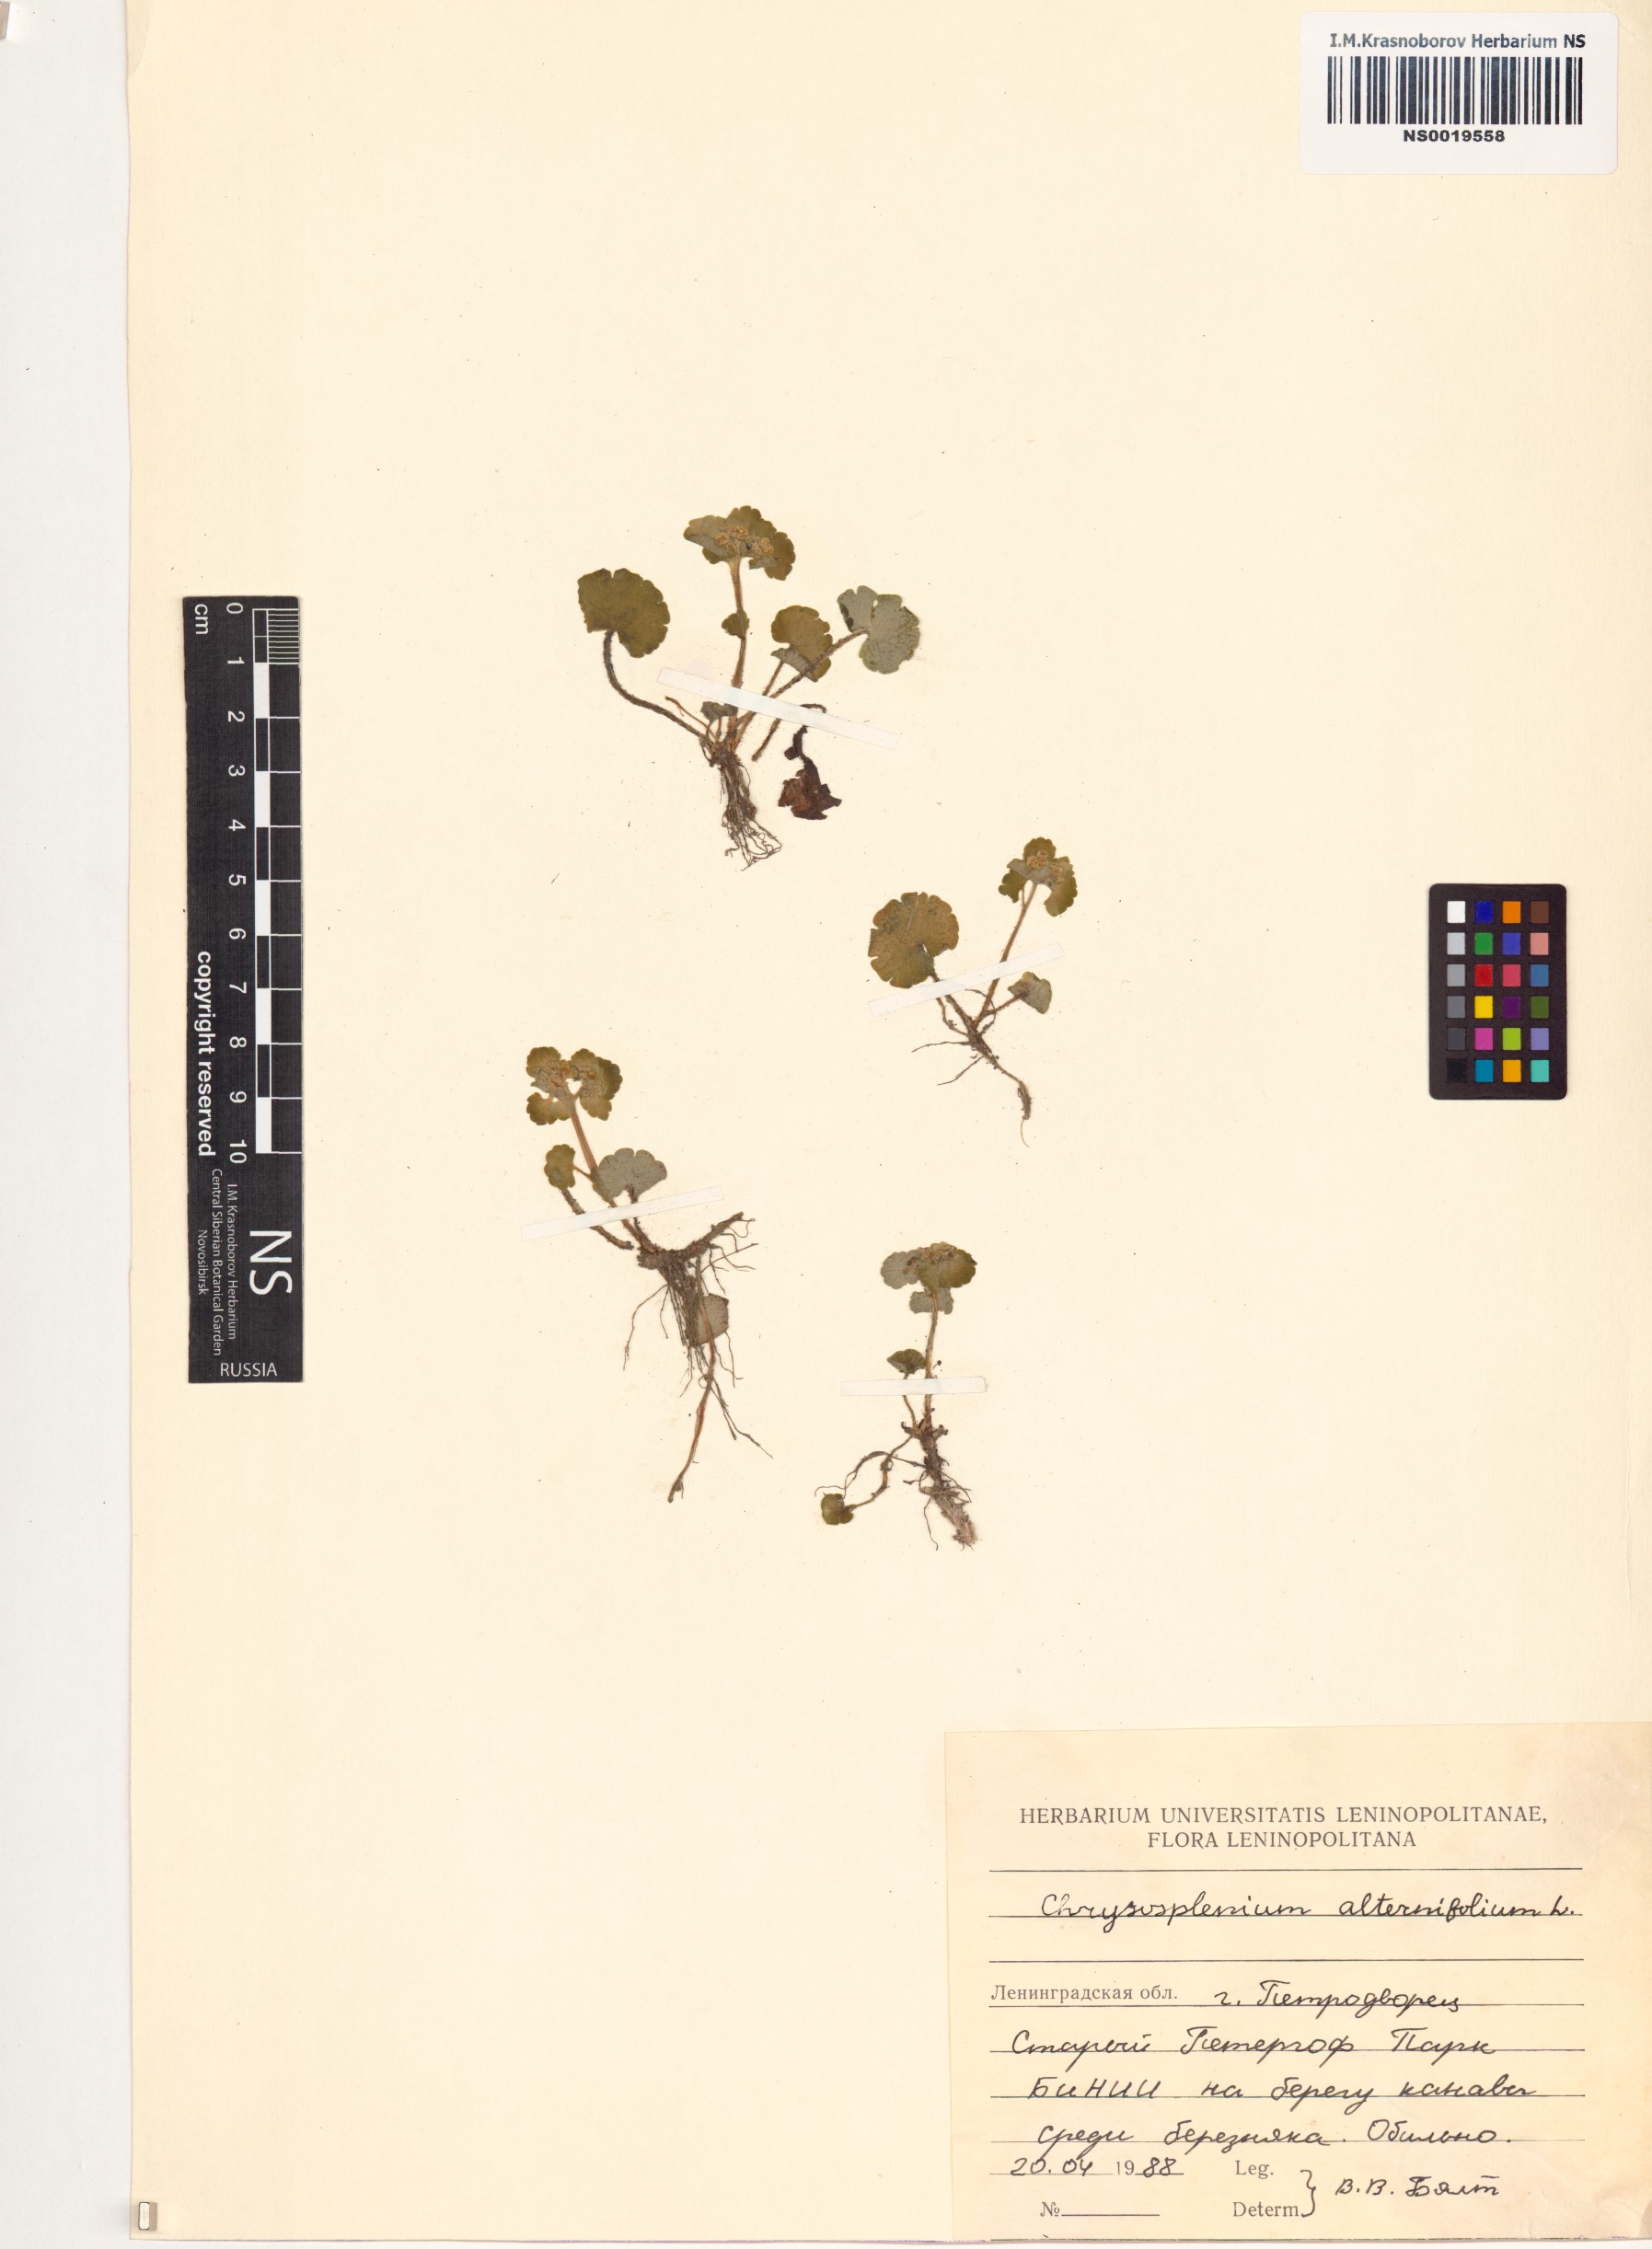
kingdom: Plantae
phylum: Tracheophyta
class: Magnoliopsida
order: Saxifragales
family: Saxifragaceae
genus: Chrysosplenium
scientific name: Chrysosplenium alternifolium
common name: Alternate-leaved golden-saxifrage
